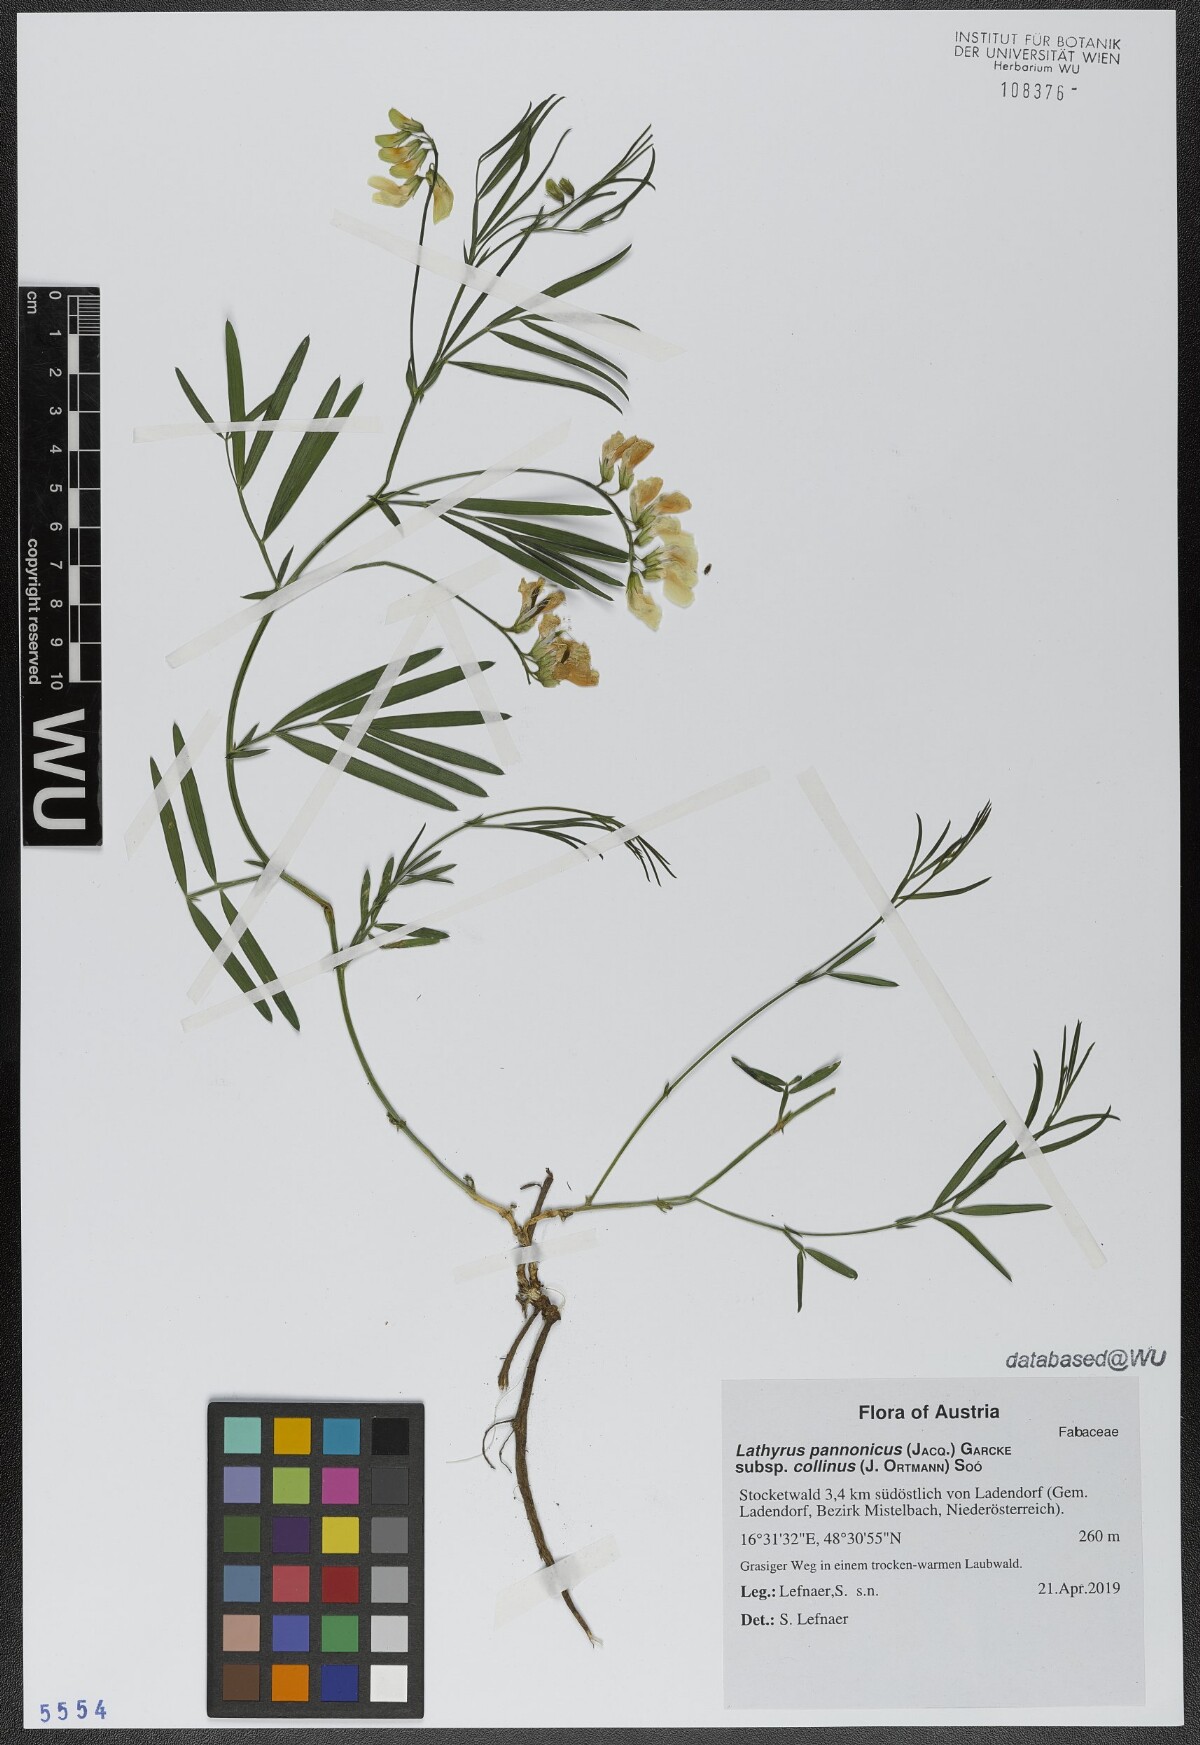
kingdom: Plantae
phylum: Tracheophyta
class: Magnoliopsida
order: Fabales
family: Fabaceae
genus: Lathyrus
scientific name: Lathyrus pannonicus
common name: Pea
